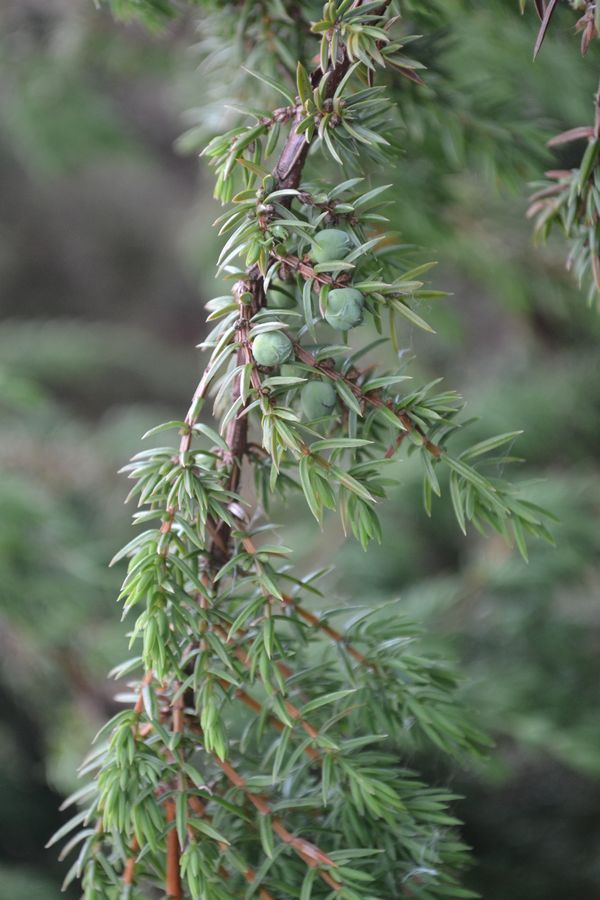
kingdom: Plantae
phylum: Tracheophyta
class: Pinopsida
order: Pinales
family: Cupressaceae
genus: Juniperus
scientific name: Juniperus communis
